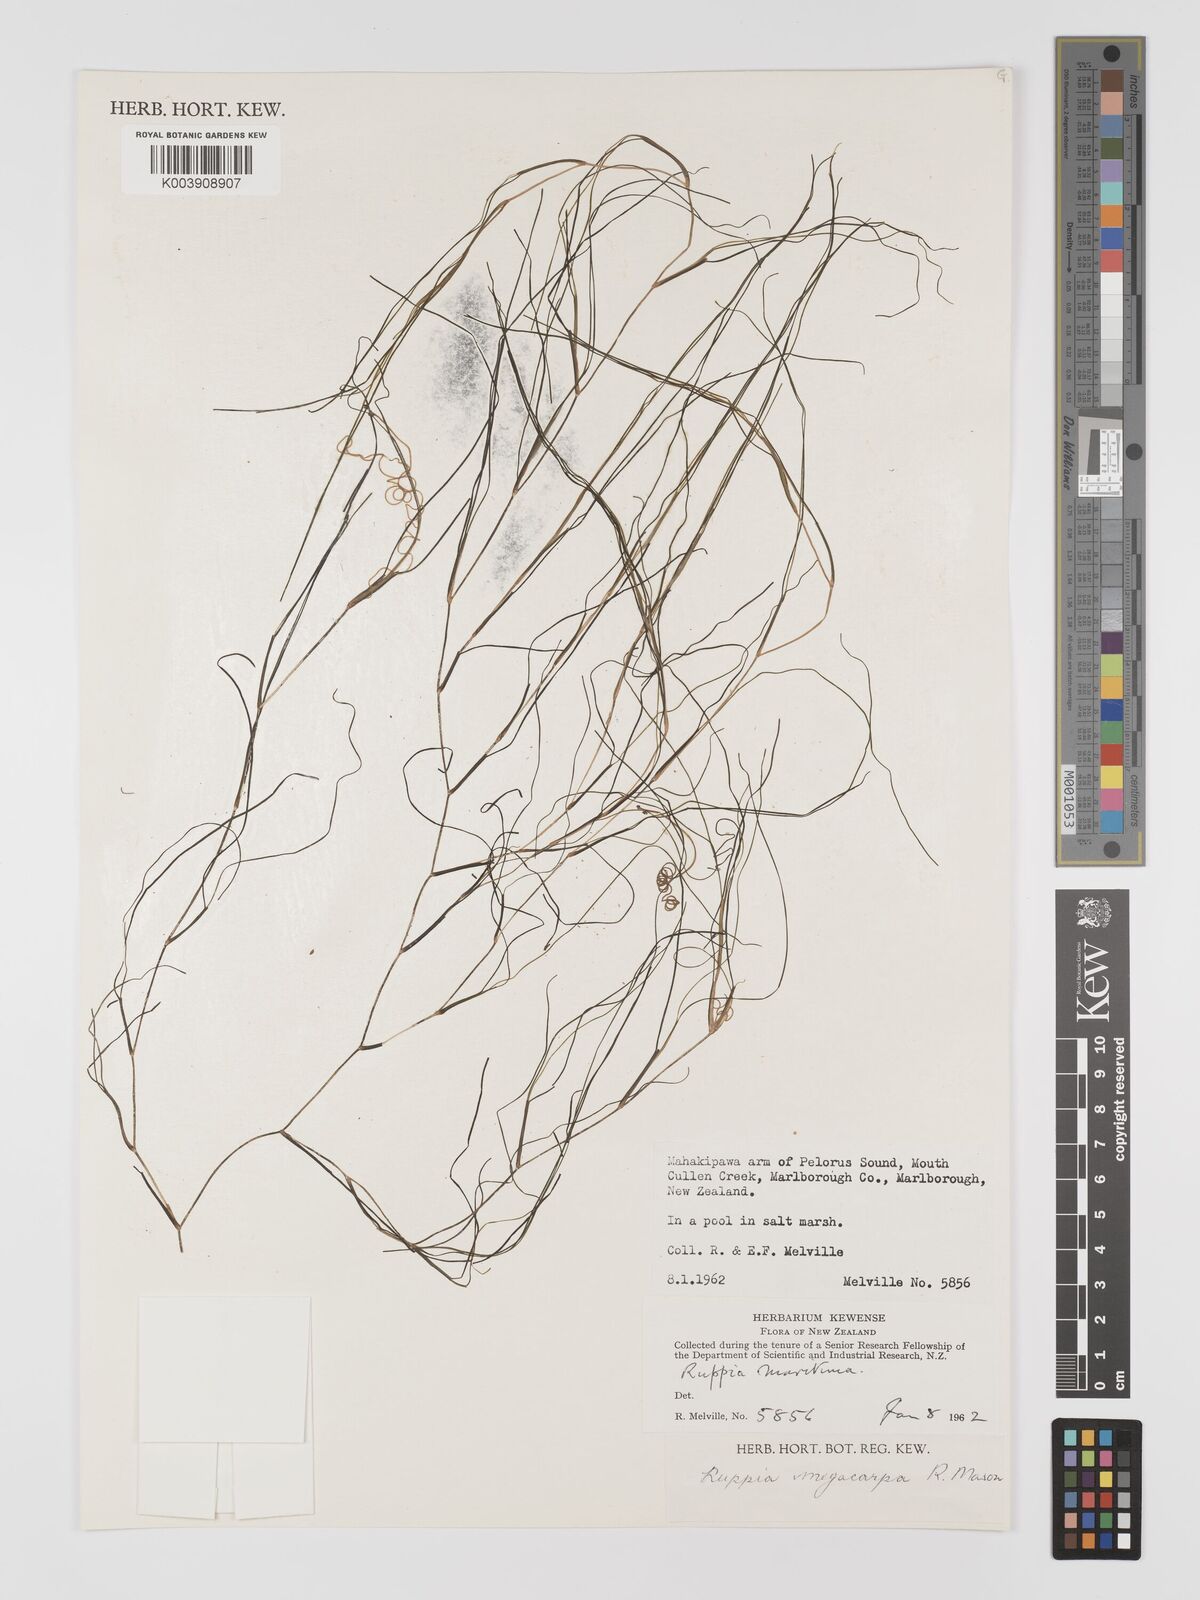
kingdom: Plantae
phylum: Tracheophyta
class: Liliopsida
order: Alismatales
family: Ruppiaceae
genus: Ruppia
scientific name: Ruppia megacarpa
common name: Large-fruit seatassel
